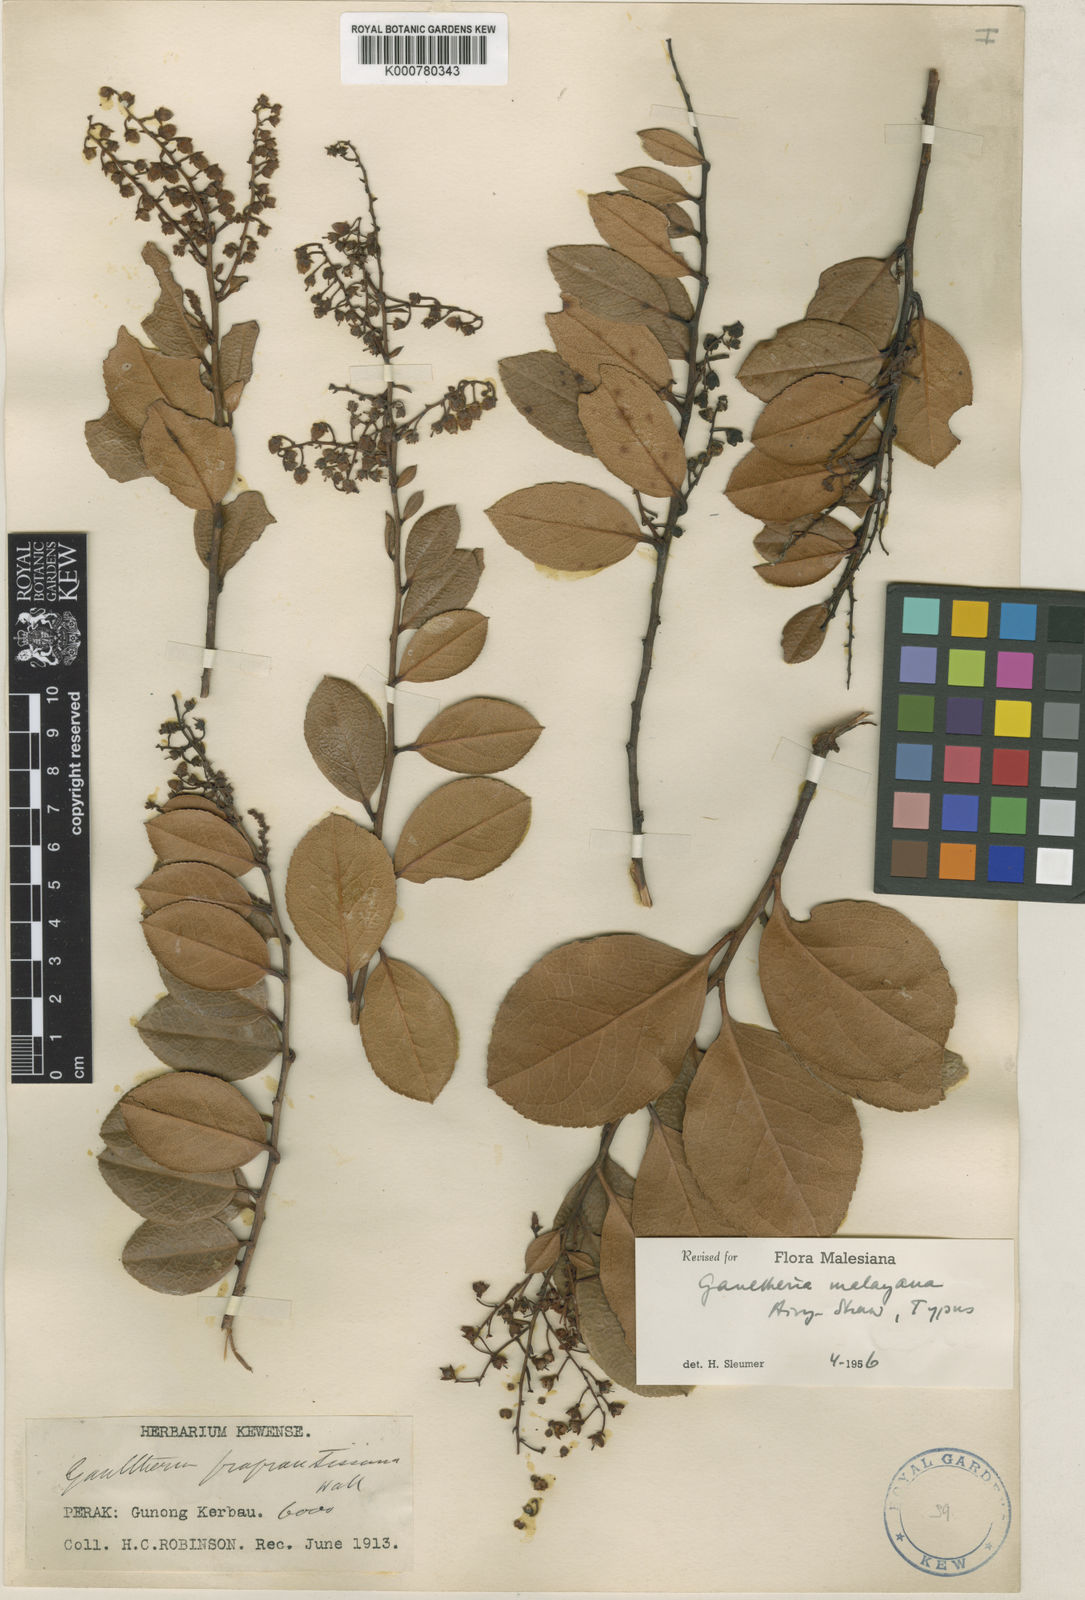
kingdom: Plantae
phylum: Tracheophyta
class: Magnoliopsida
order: Ericales
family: Ericaceae
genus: Gaultheria
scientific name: Gaultheria malayana
